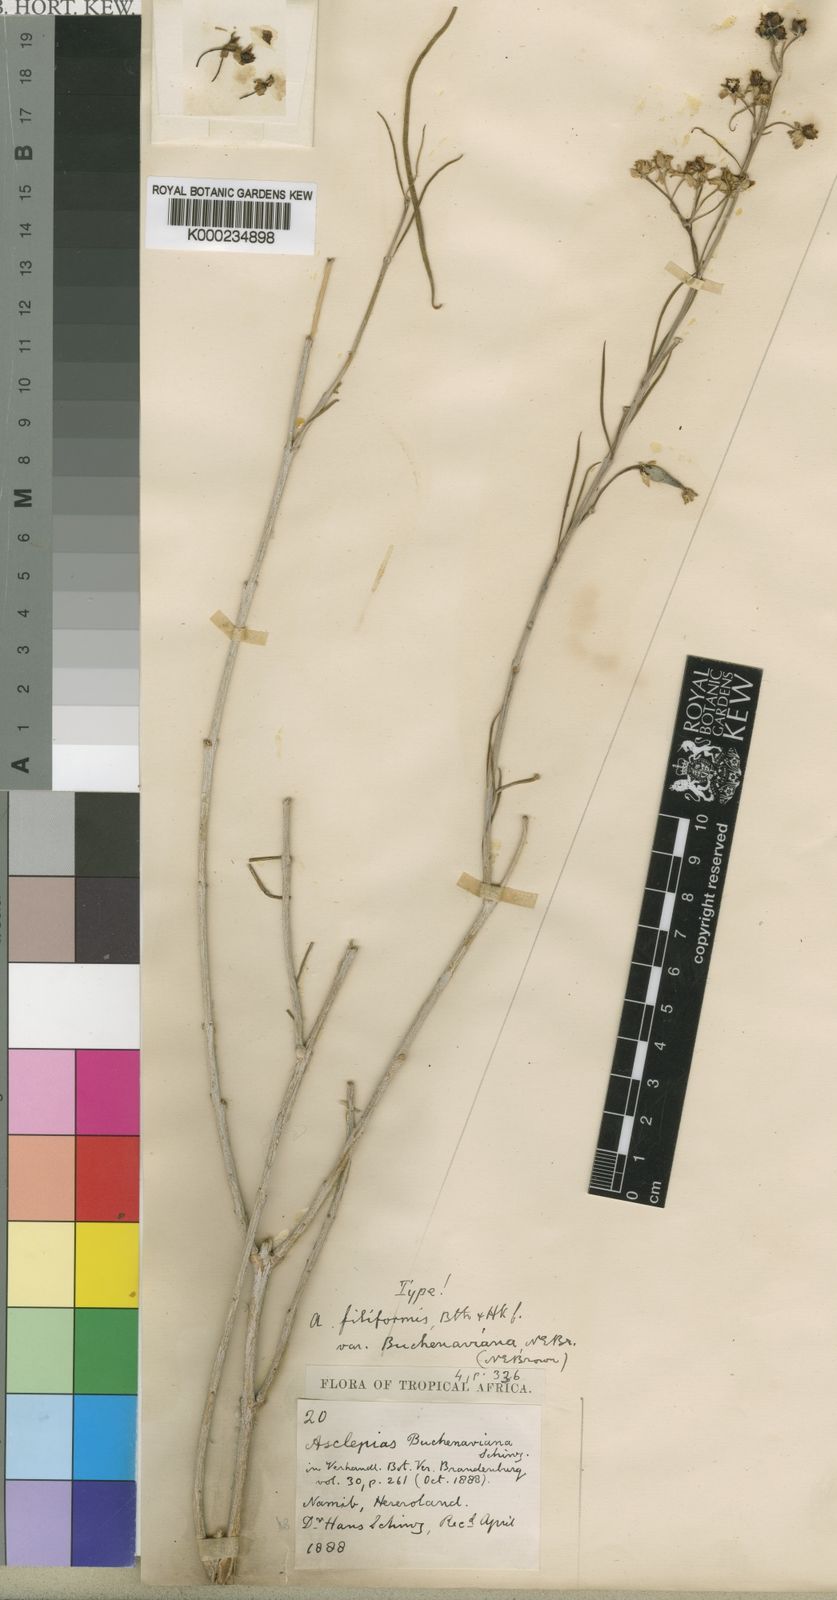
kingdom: Plantae
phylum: Tracheophyta
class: Magnoliopsida
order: Gentianales
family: Apocynaceae
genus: Gomphocarpus
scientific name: Gomphocarpus filiformis
